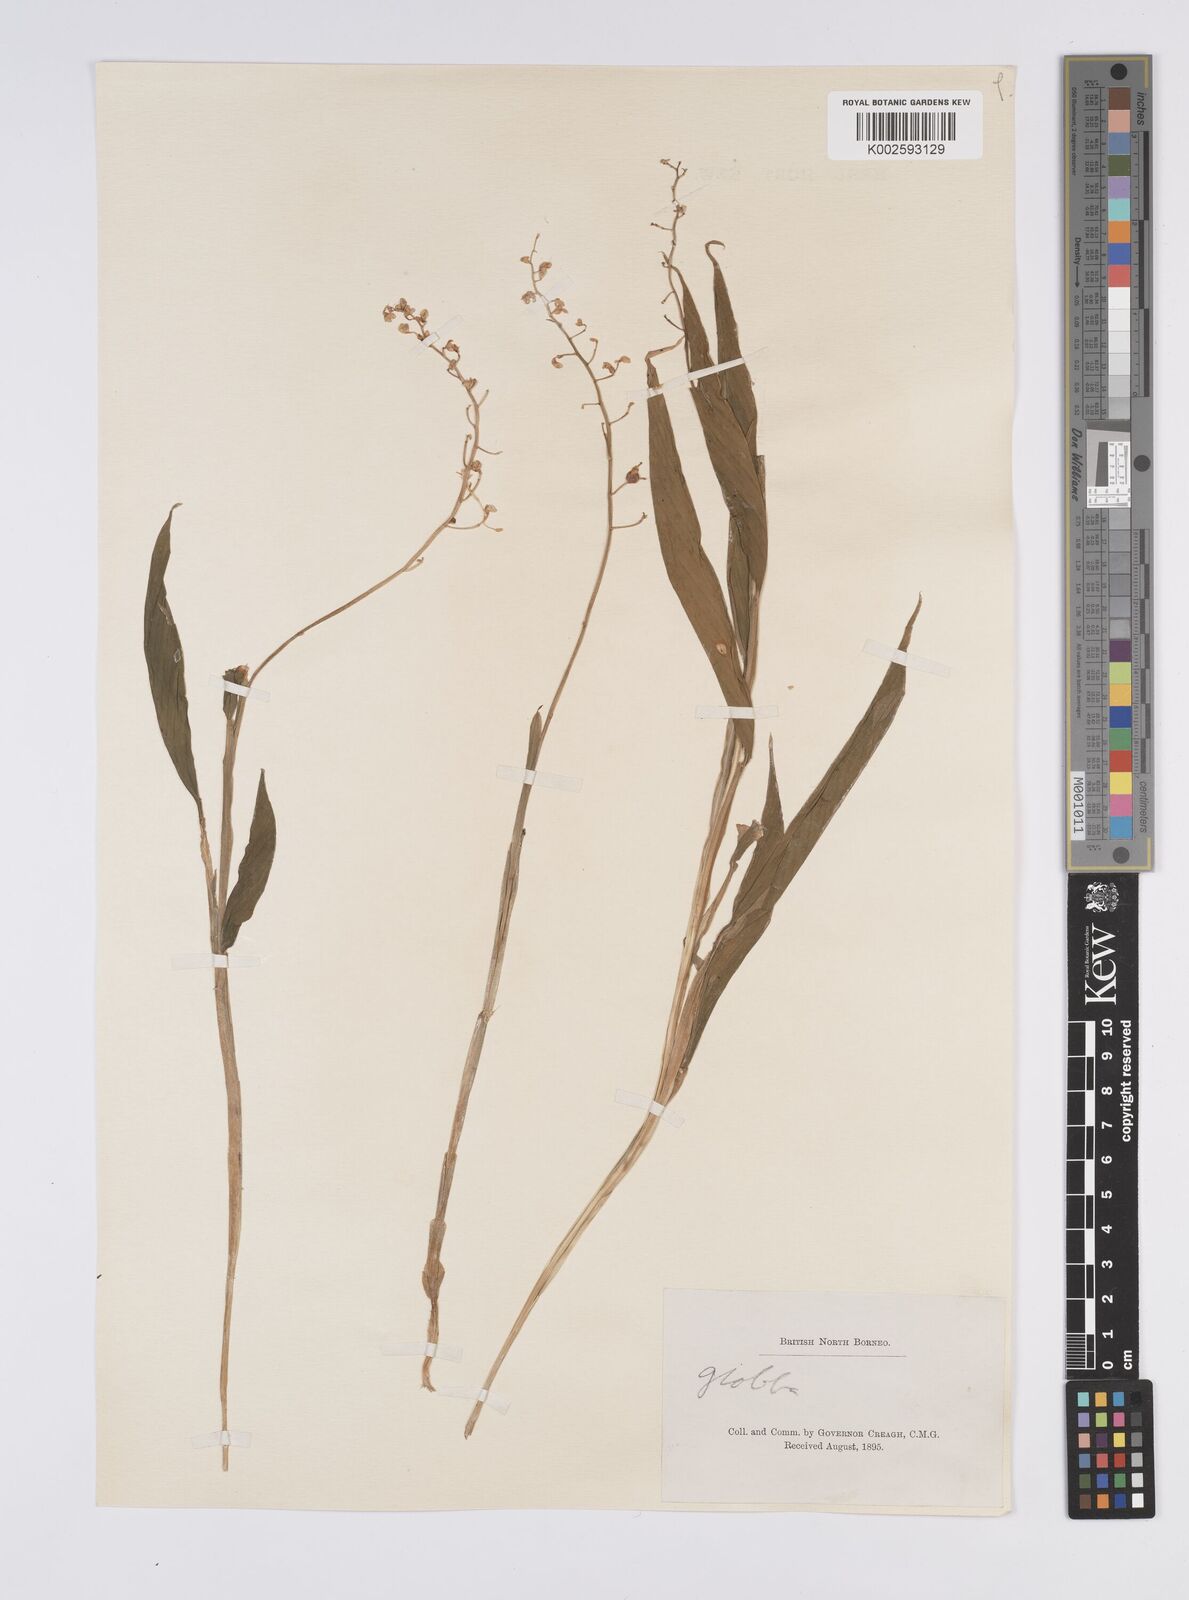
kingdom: Plantae
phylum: Tracheophyta
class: Liliopsida
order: Zingiberales
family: Zingiberaceae
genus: Globba
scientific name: Globba pendula
